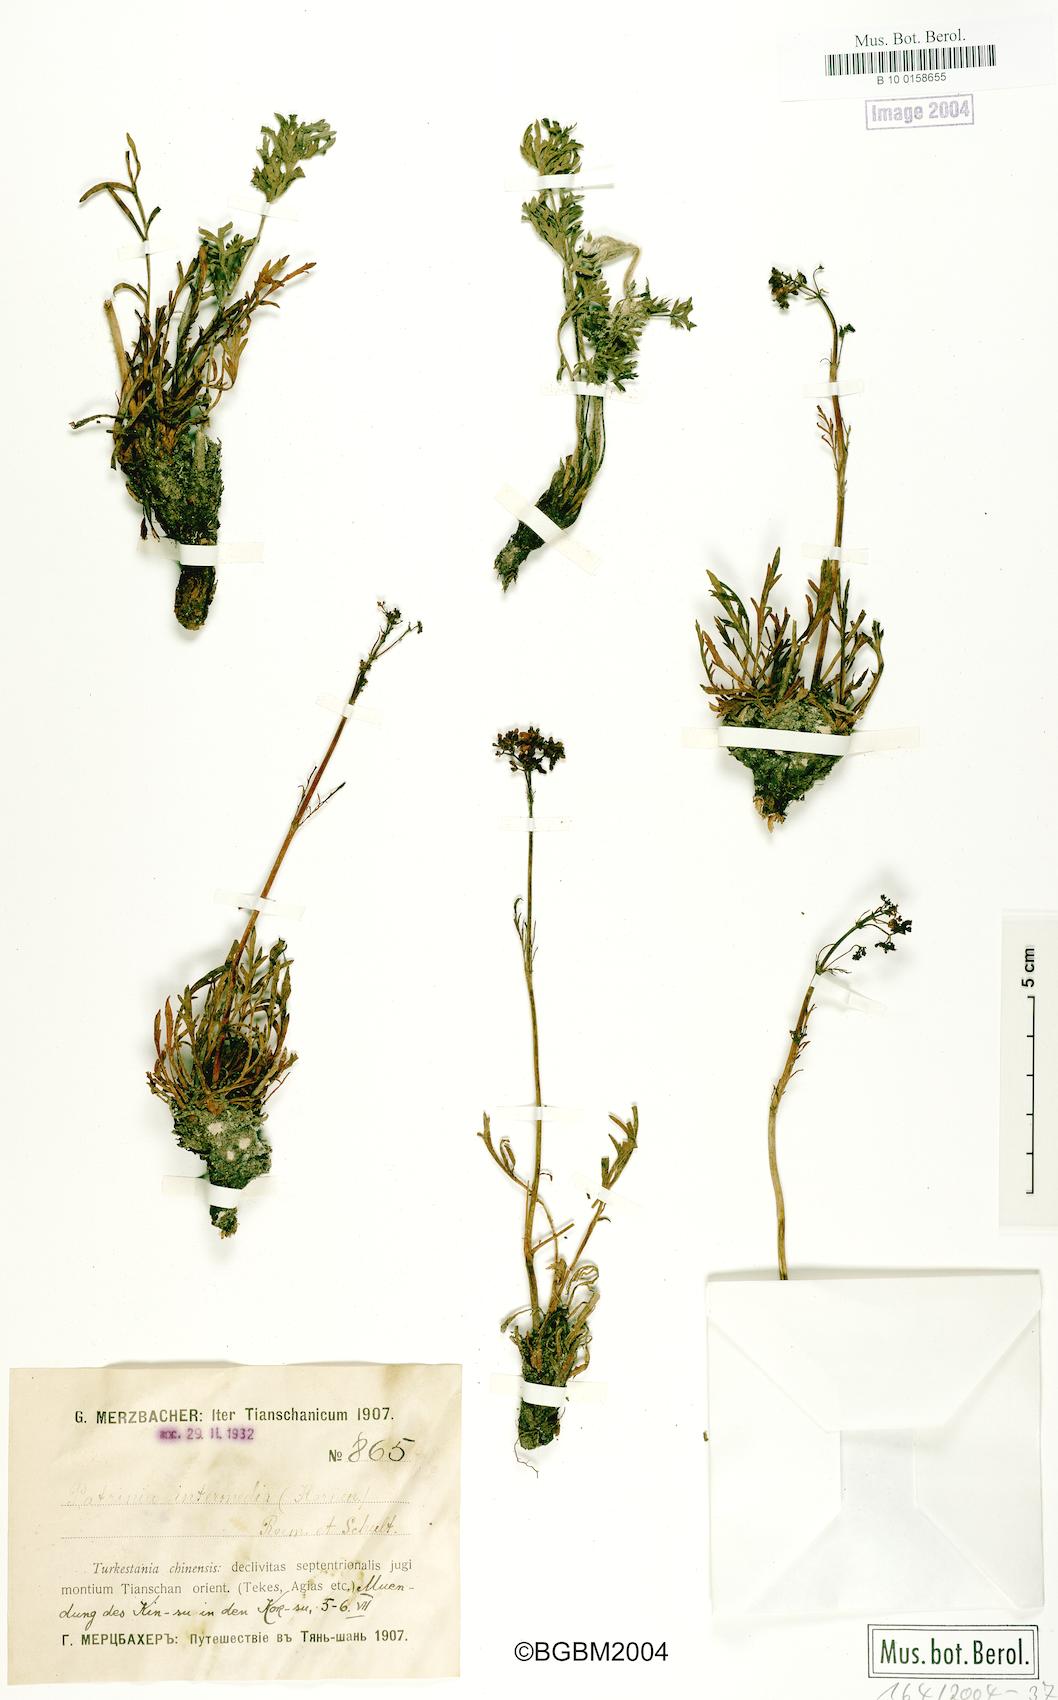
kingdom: Plantae
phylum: Tracheophyta
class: Magnoliopsida
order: Dipsacales
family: Caprifoliaceae
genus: Patrinia
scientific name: Patrinia intermedia
